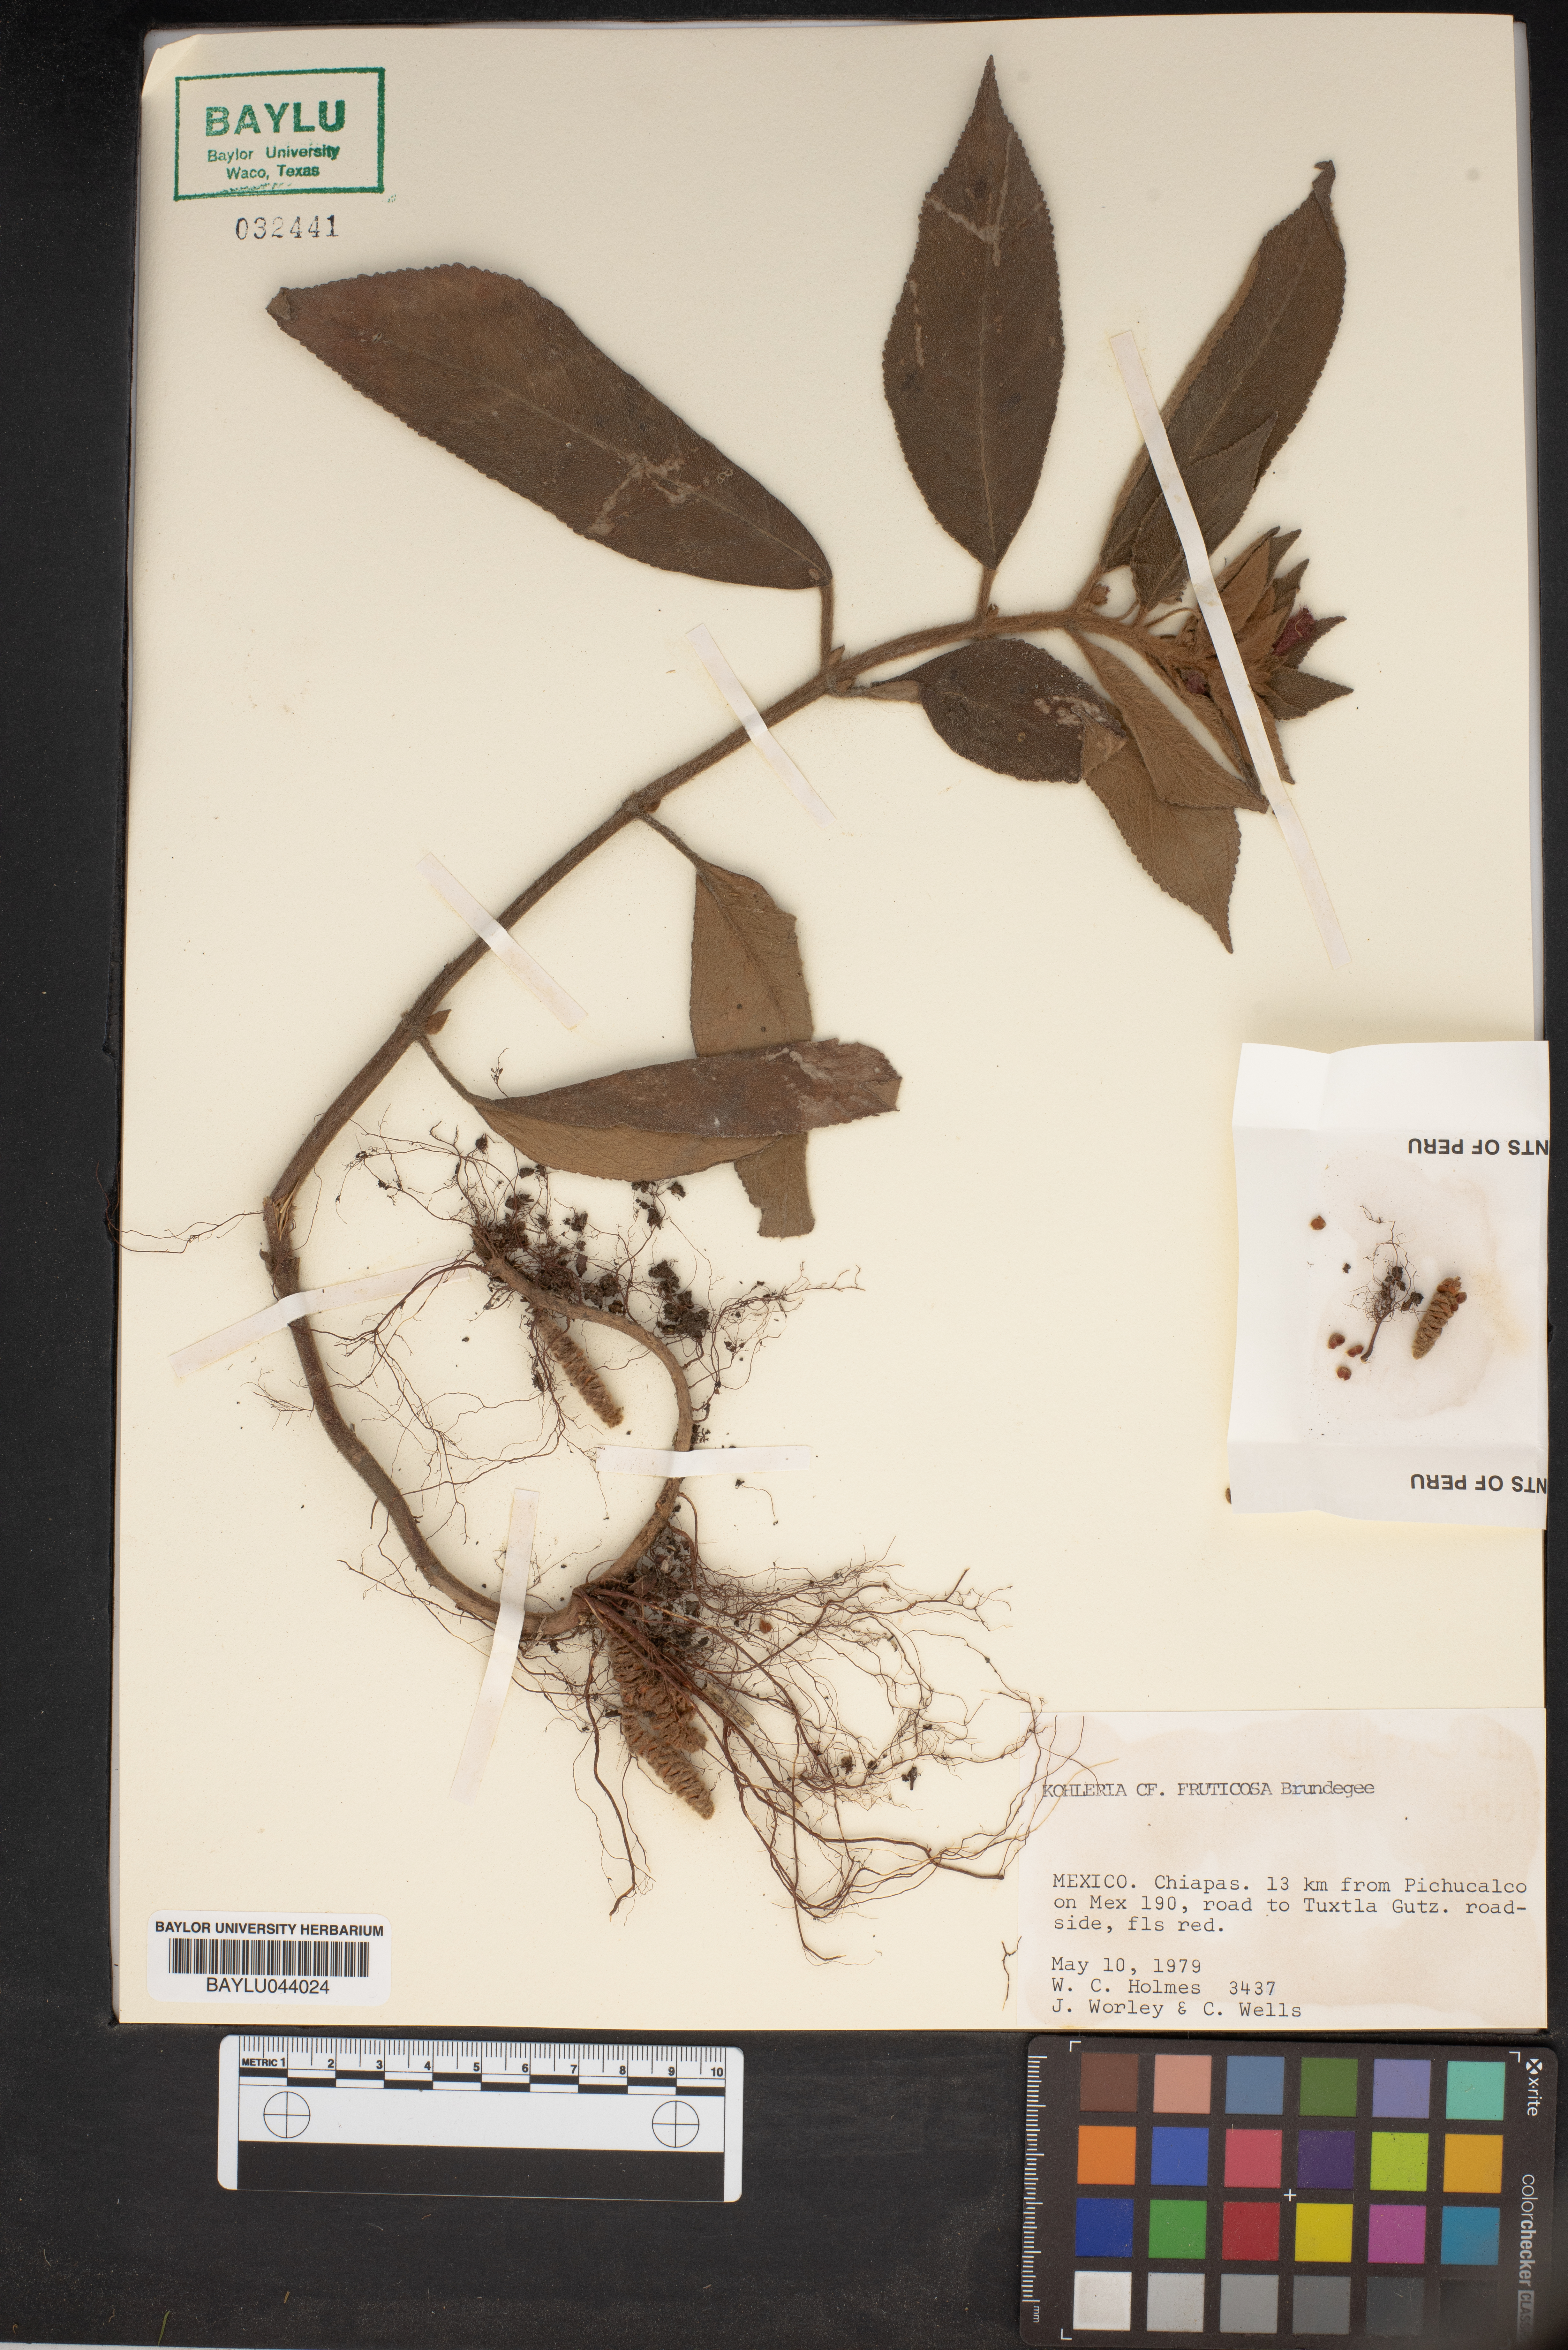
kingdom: Plantae
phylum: Tracheophyta
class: Magnoliopsida
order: Lamiales
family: Gesneriaceae
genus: Moussonia
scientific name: Moussonia fruticosa
